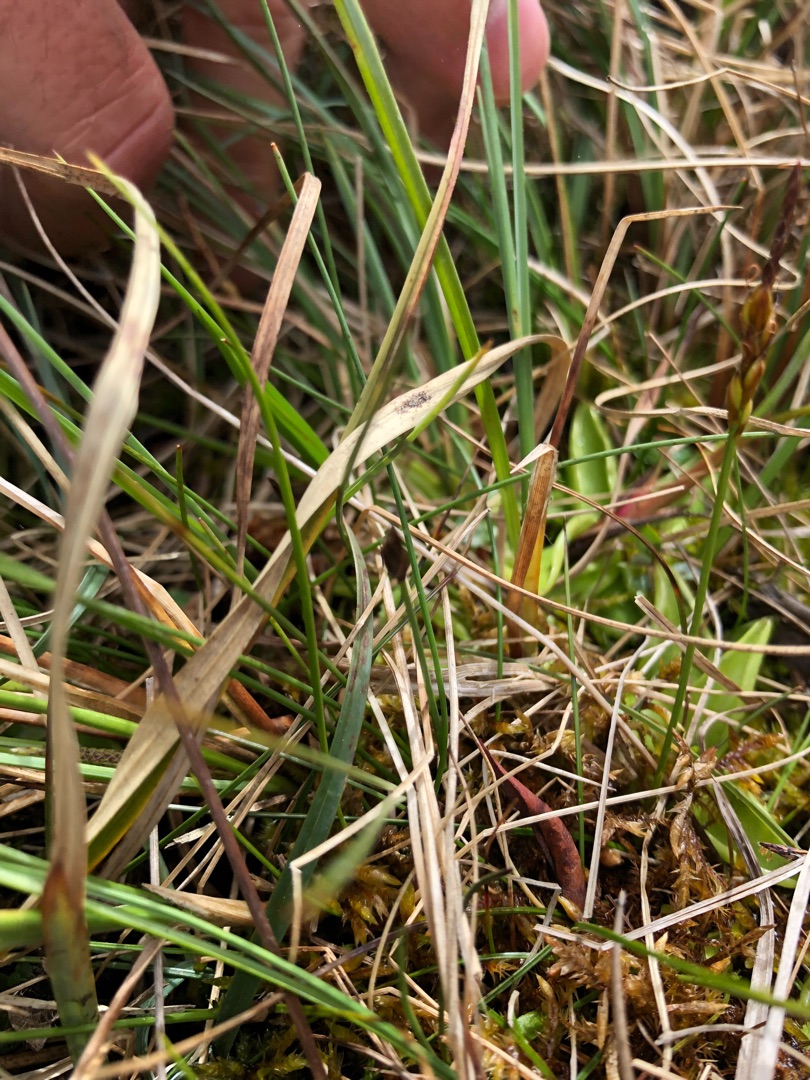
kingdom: Plantae
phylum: Tracheophyta
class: Liliopsida
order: Poales
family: Cyperaceae
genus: Carex
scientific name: Carex pulicaris
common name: Loppe-star
